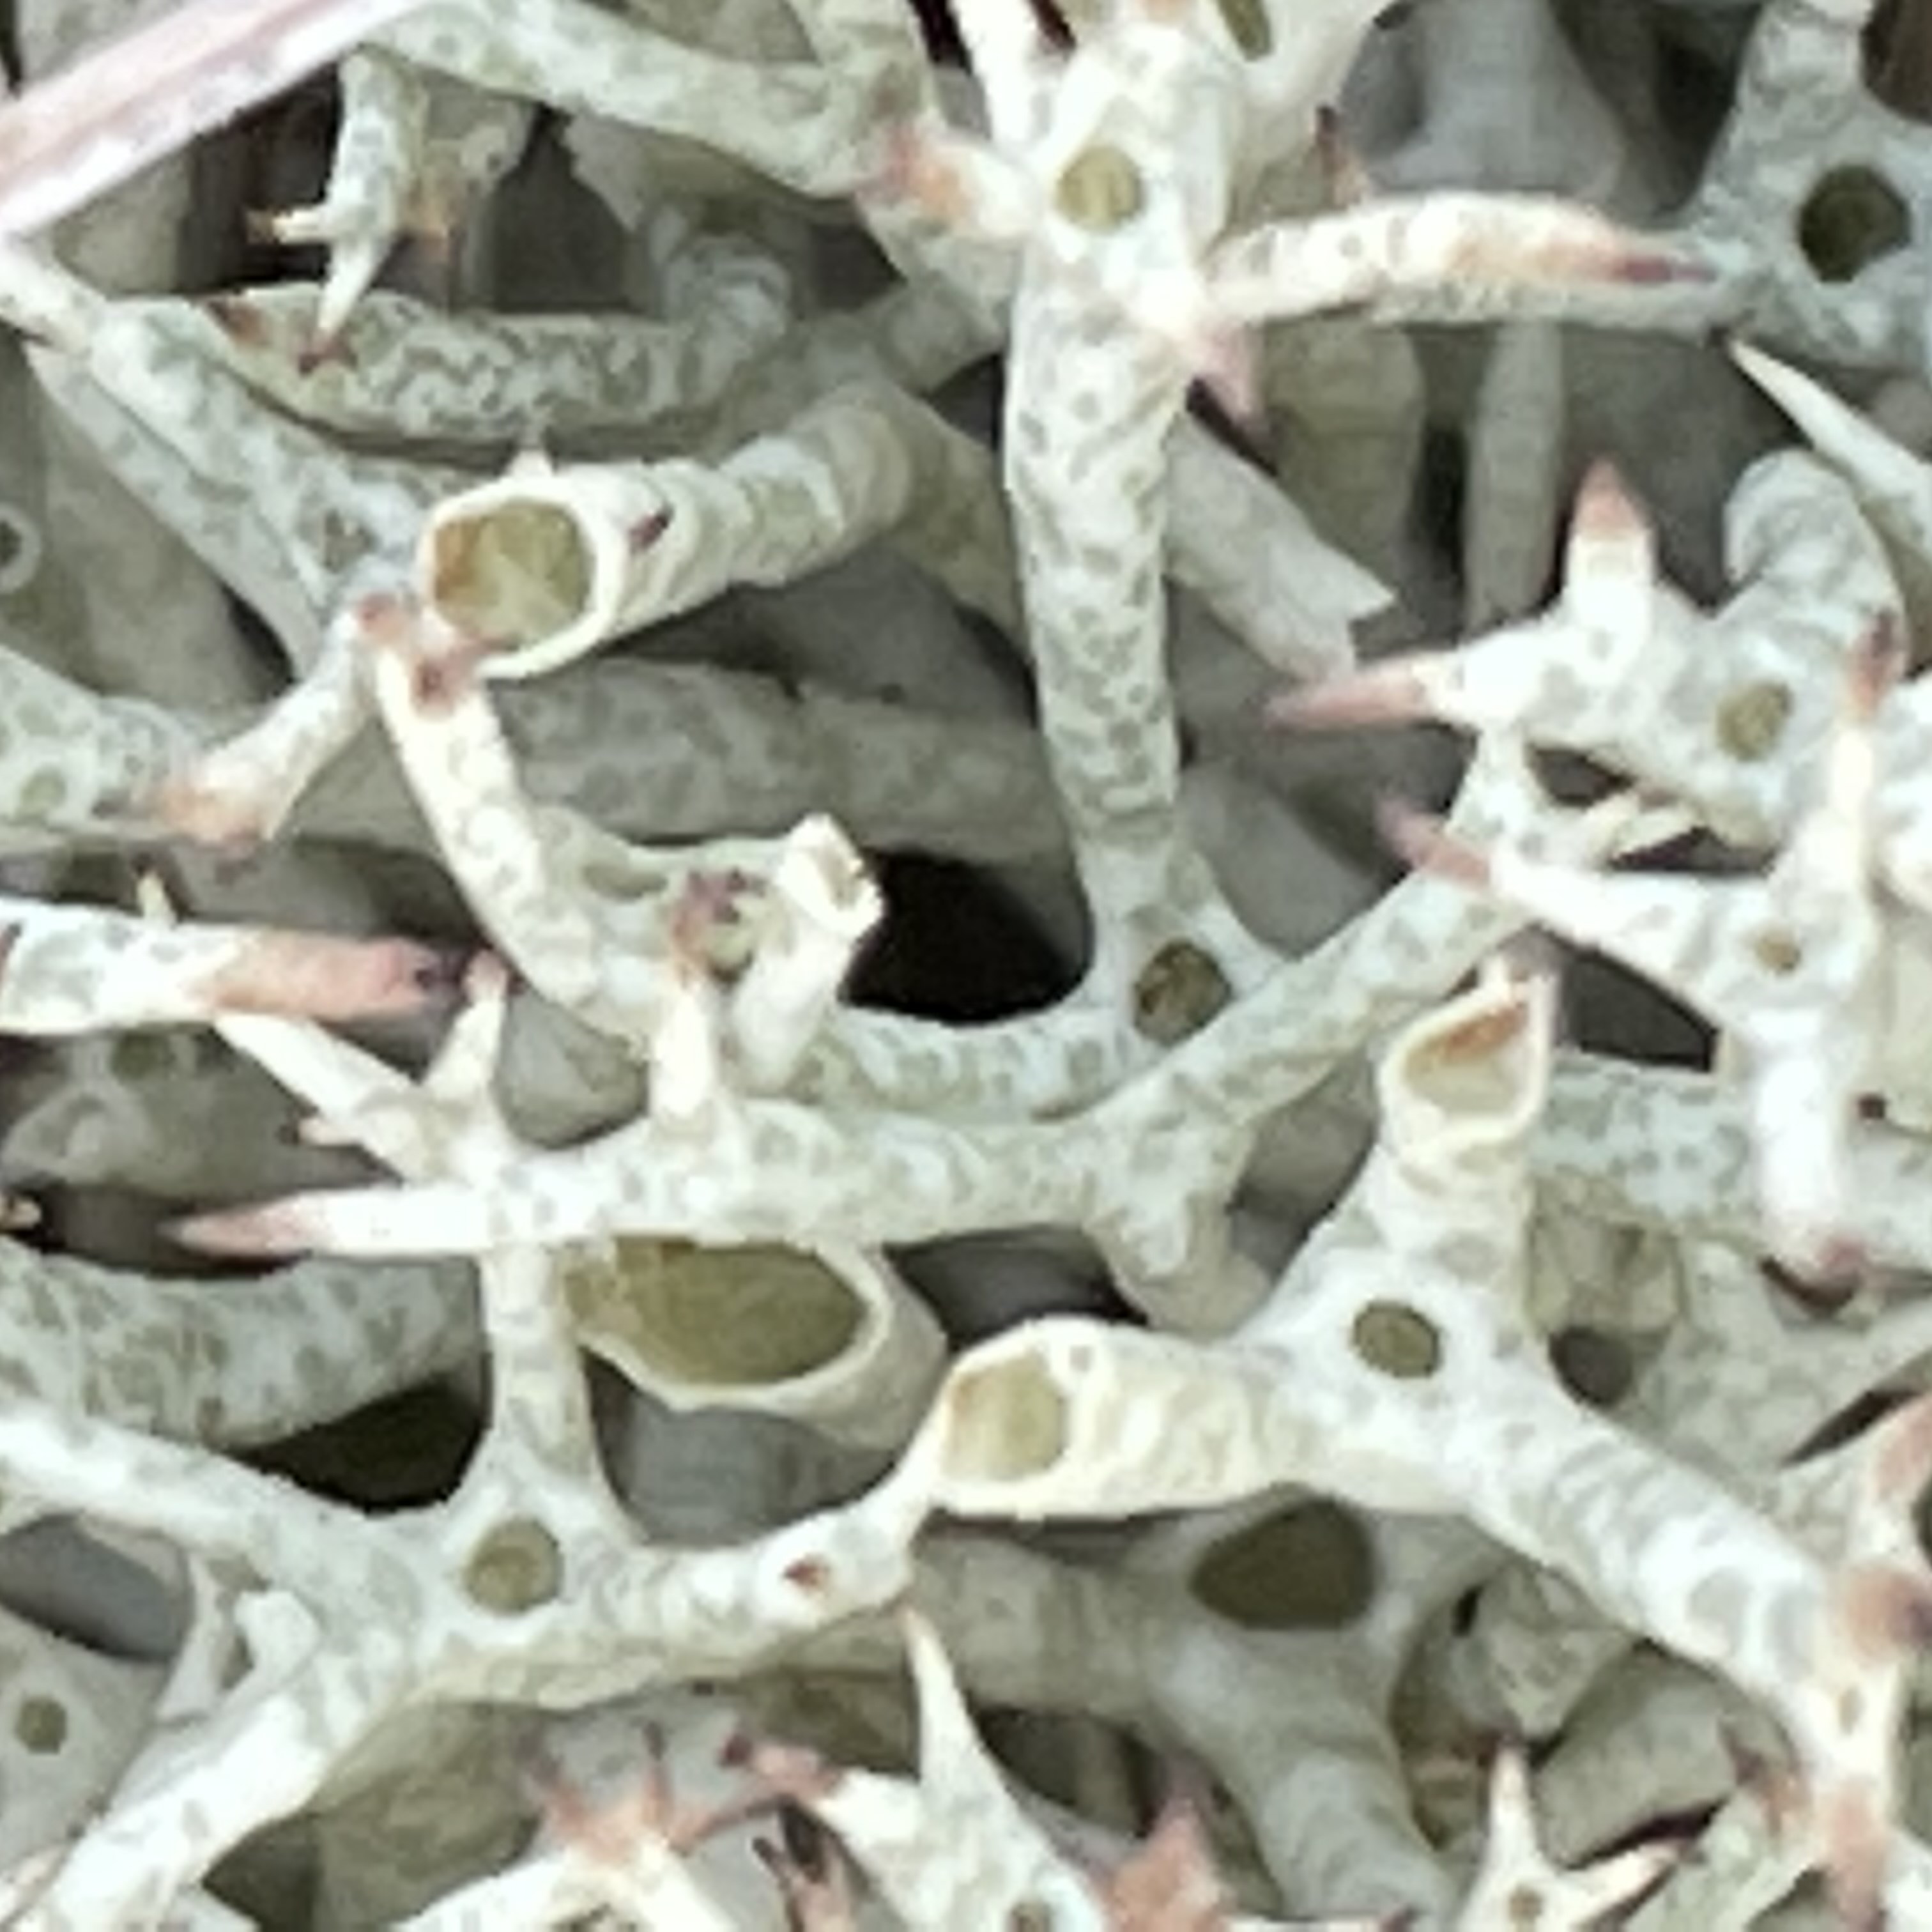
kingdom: Fungi
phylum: Ascomycota
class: Lecanoromycetes
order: Lecanorales
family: Cladoniaceae
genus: Cladonia
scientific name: Cladonia uncialis
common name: pigget bægerlav
